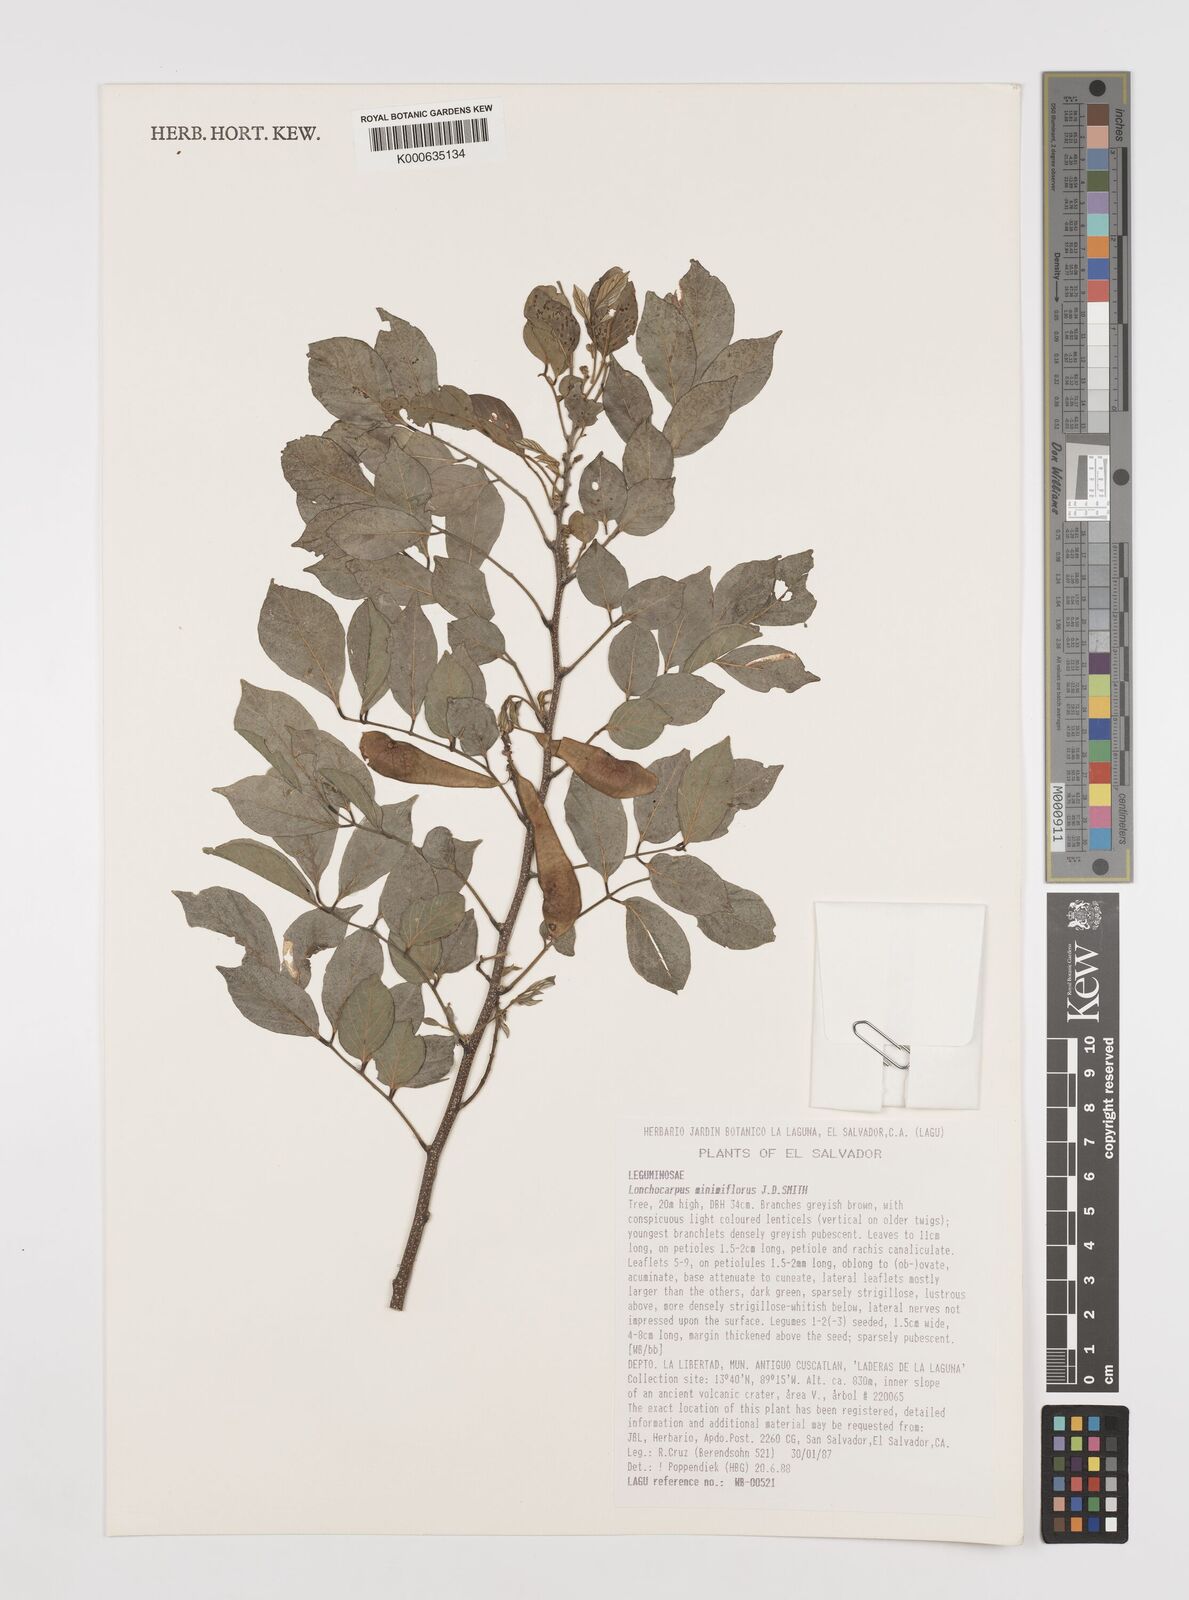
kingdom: Plantae
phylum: Tracheophyta
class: Magnoliopsida
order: Fabales
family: Fabaceae
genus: Lonchocarpus
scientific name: Lonchocarpus
